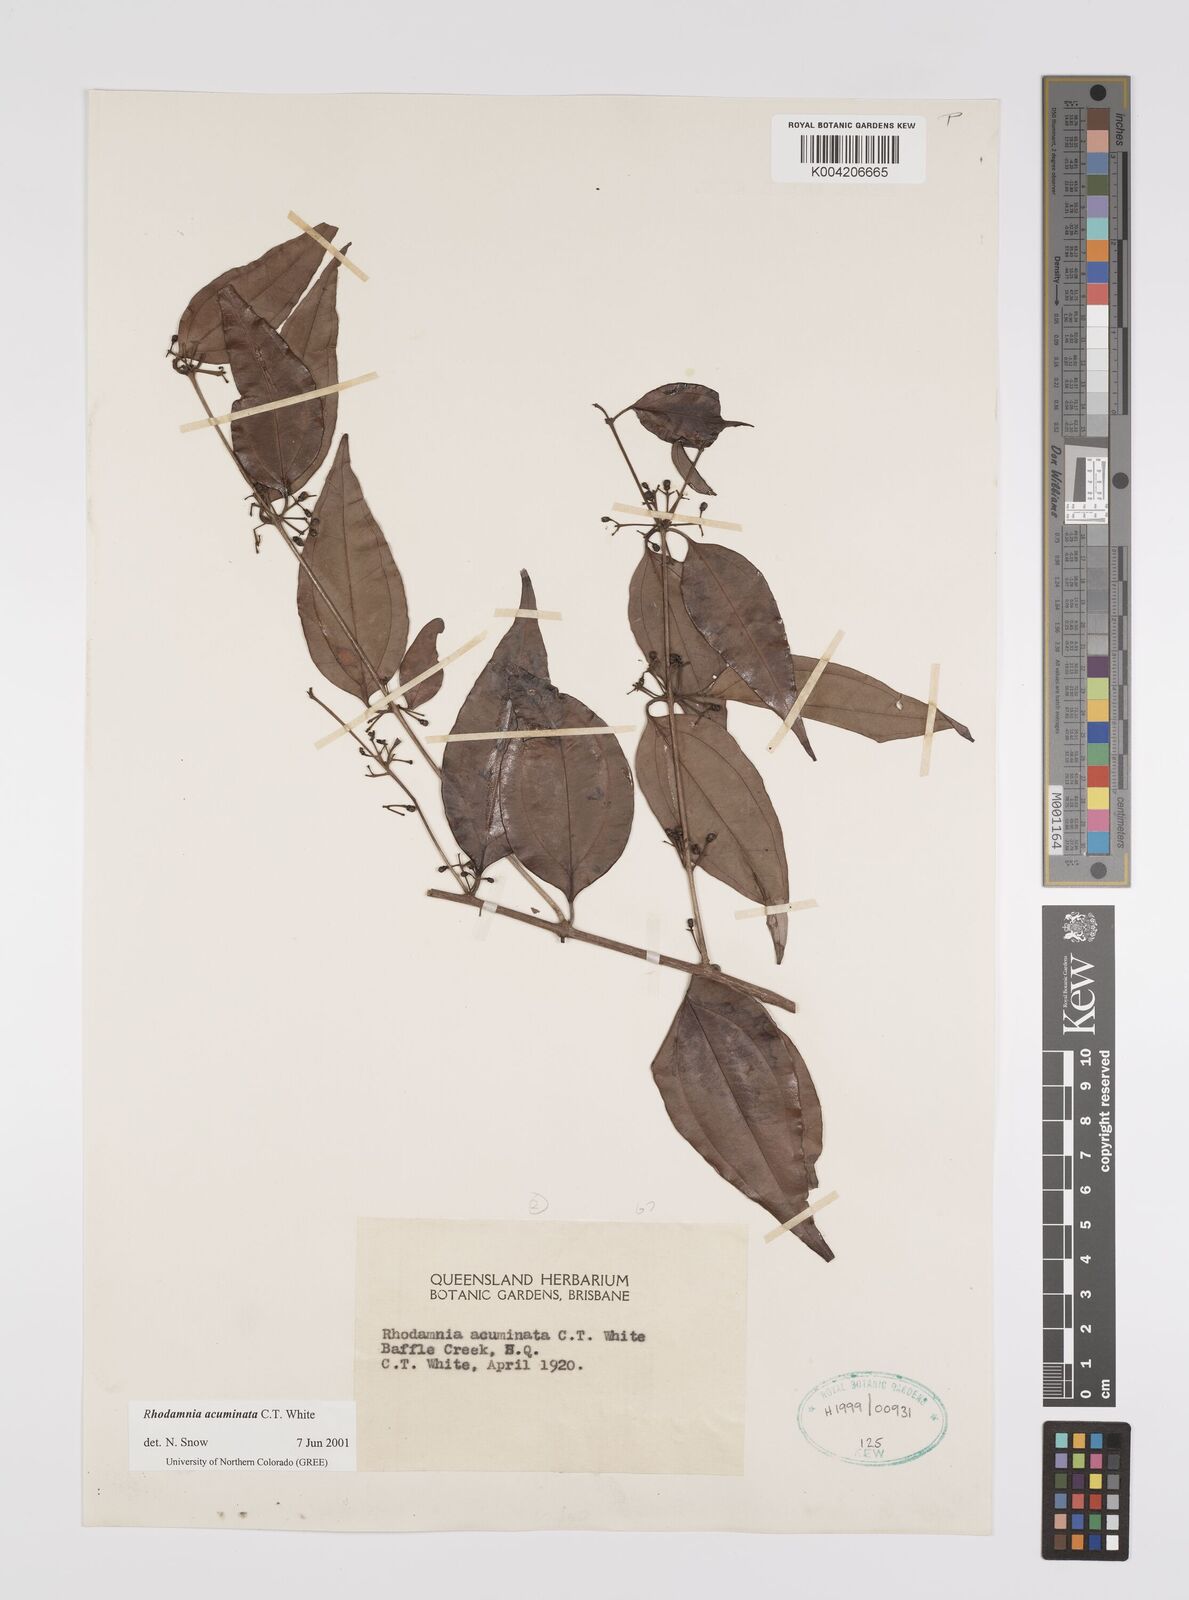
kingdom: Plantae
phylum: Tracheophyta
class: Magnoliopsida
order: Myrtales
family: Myrtaceae
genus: Rhodamnia
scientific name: Rhodamnia acuminata
